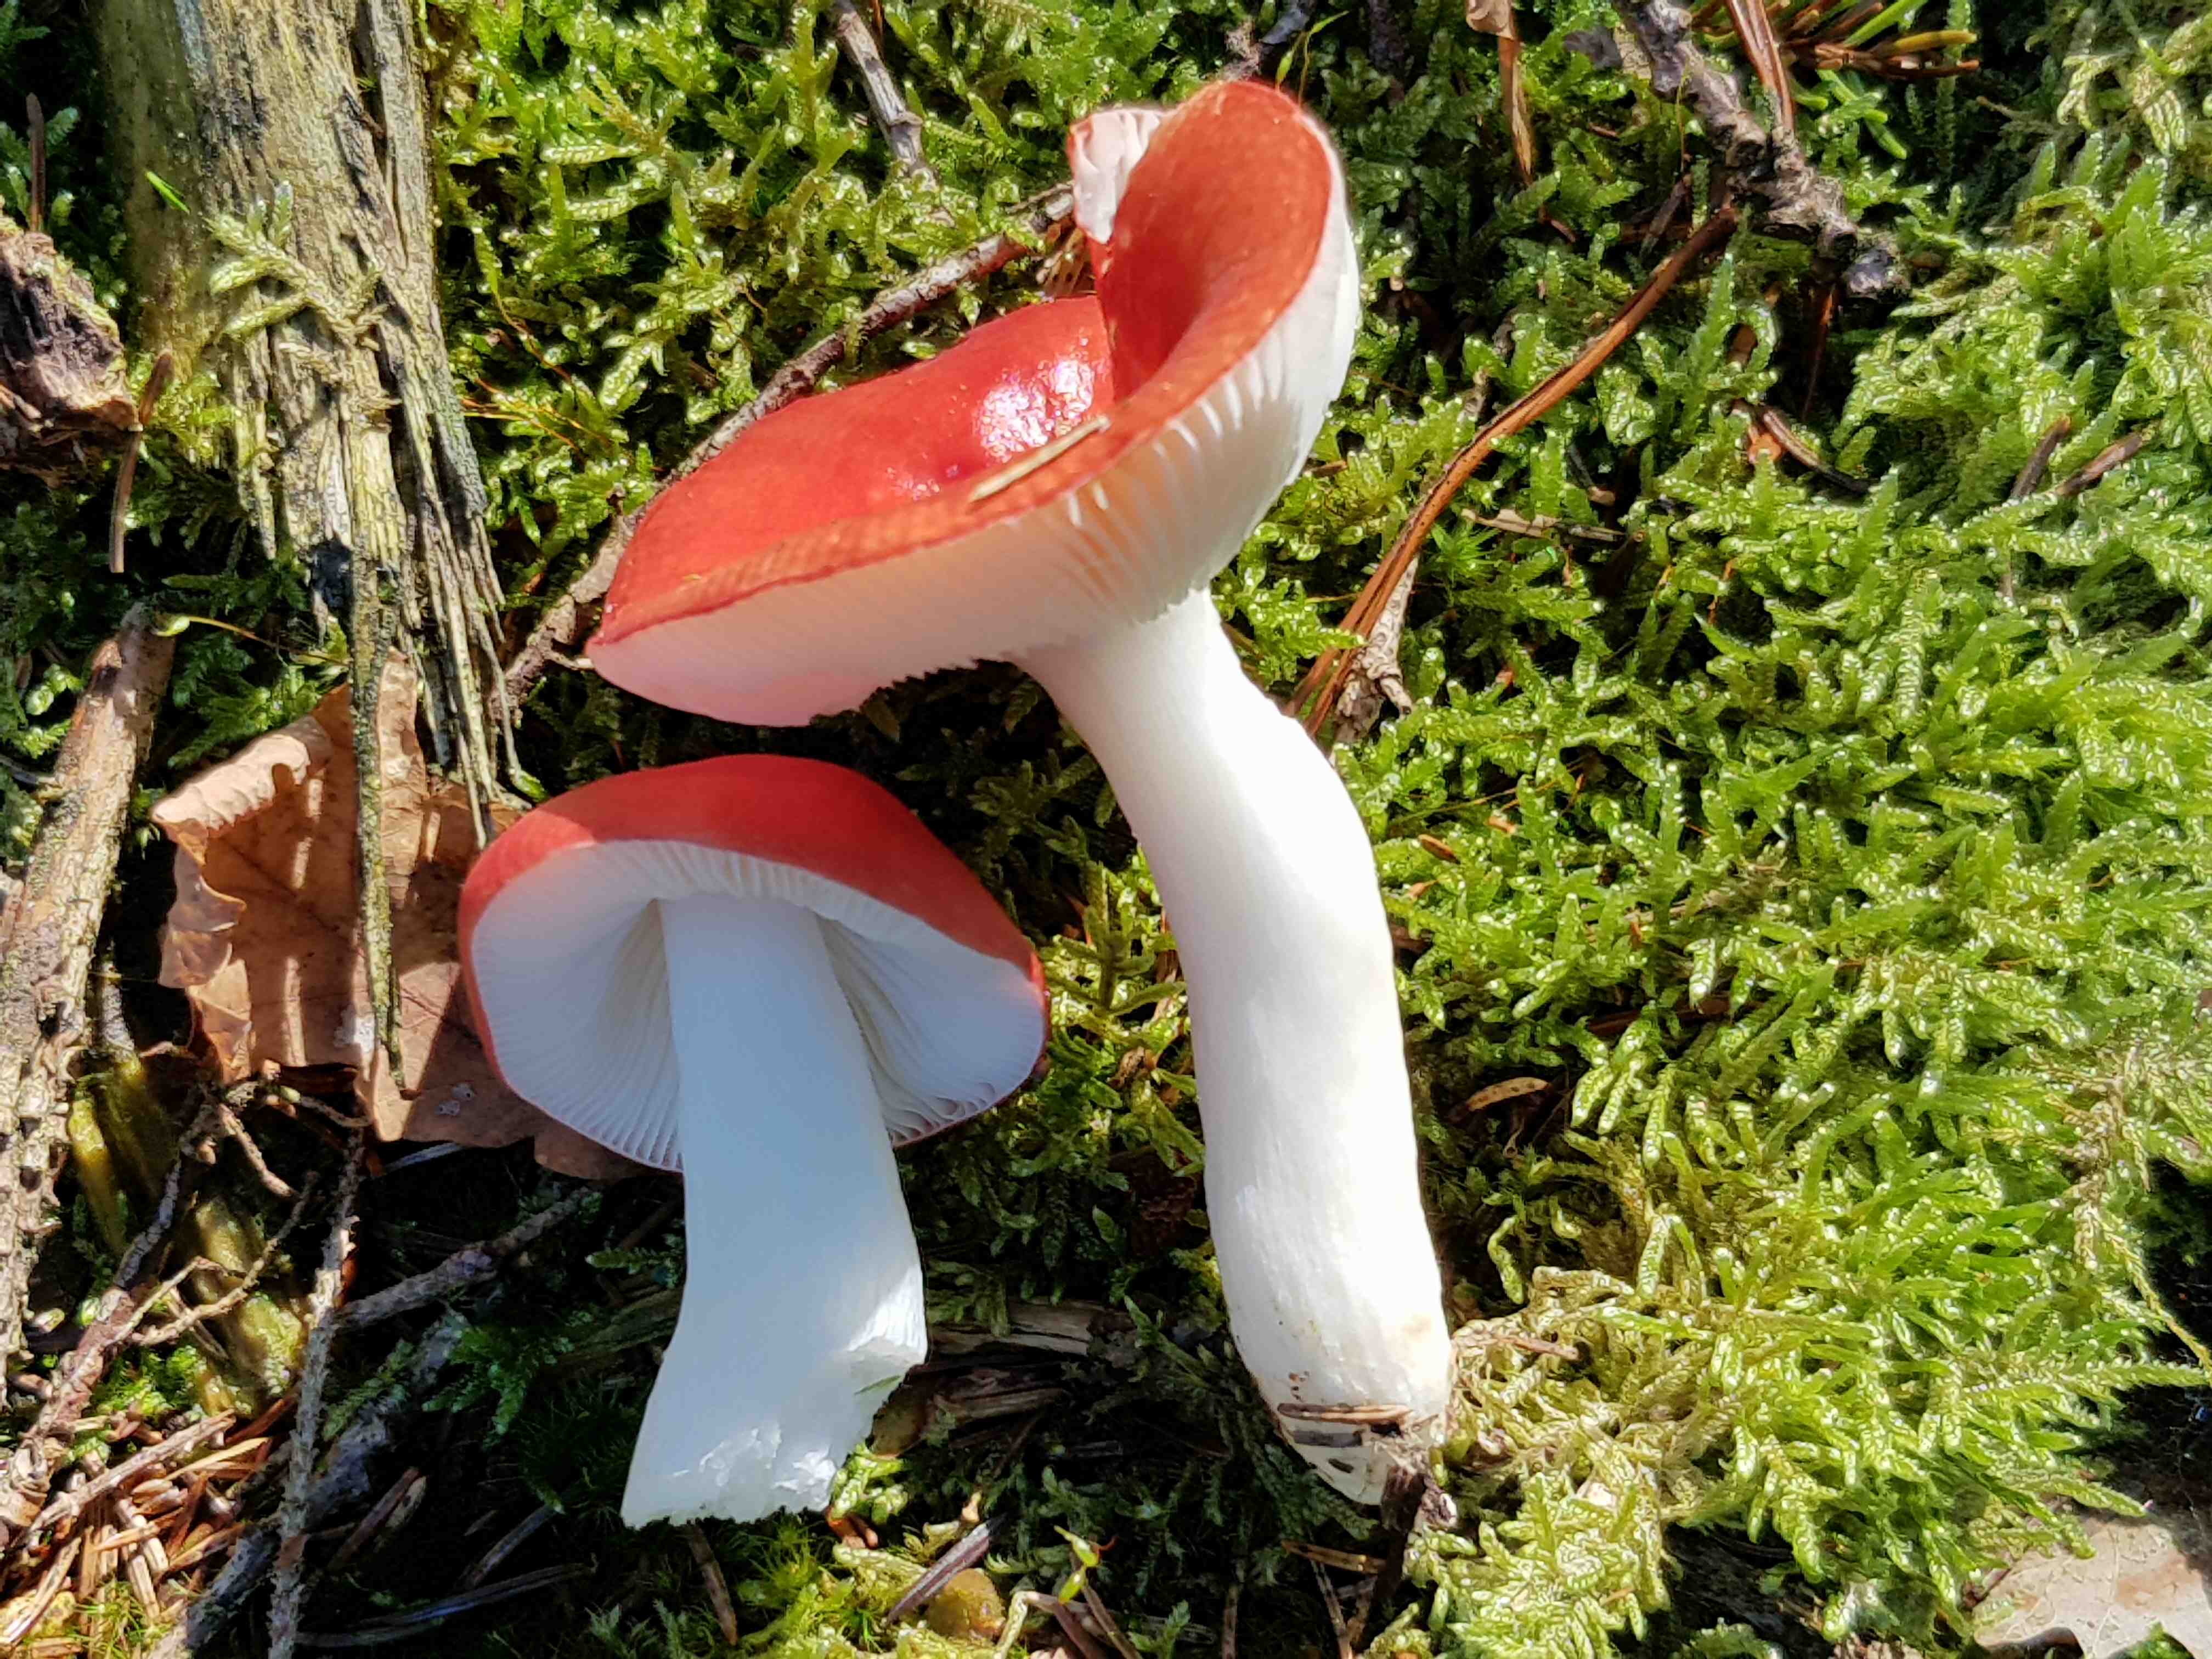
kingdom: Fungi
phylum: Basidiomycota
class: Agaricomycetes
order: Russulales
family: Russulaceae
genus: Russula
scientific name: Russula emetica
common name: stor gift-skørhat
